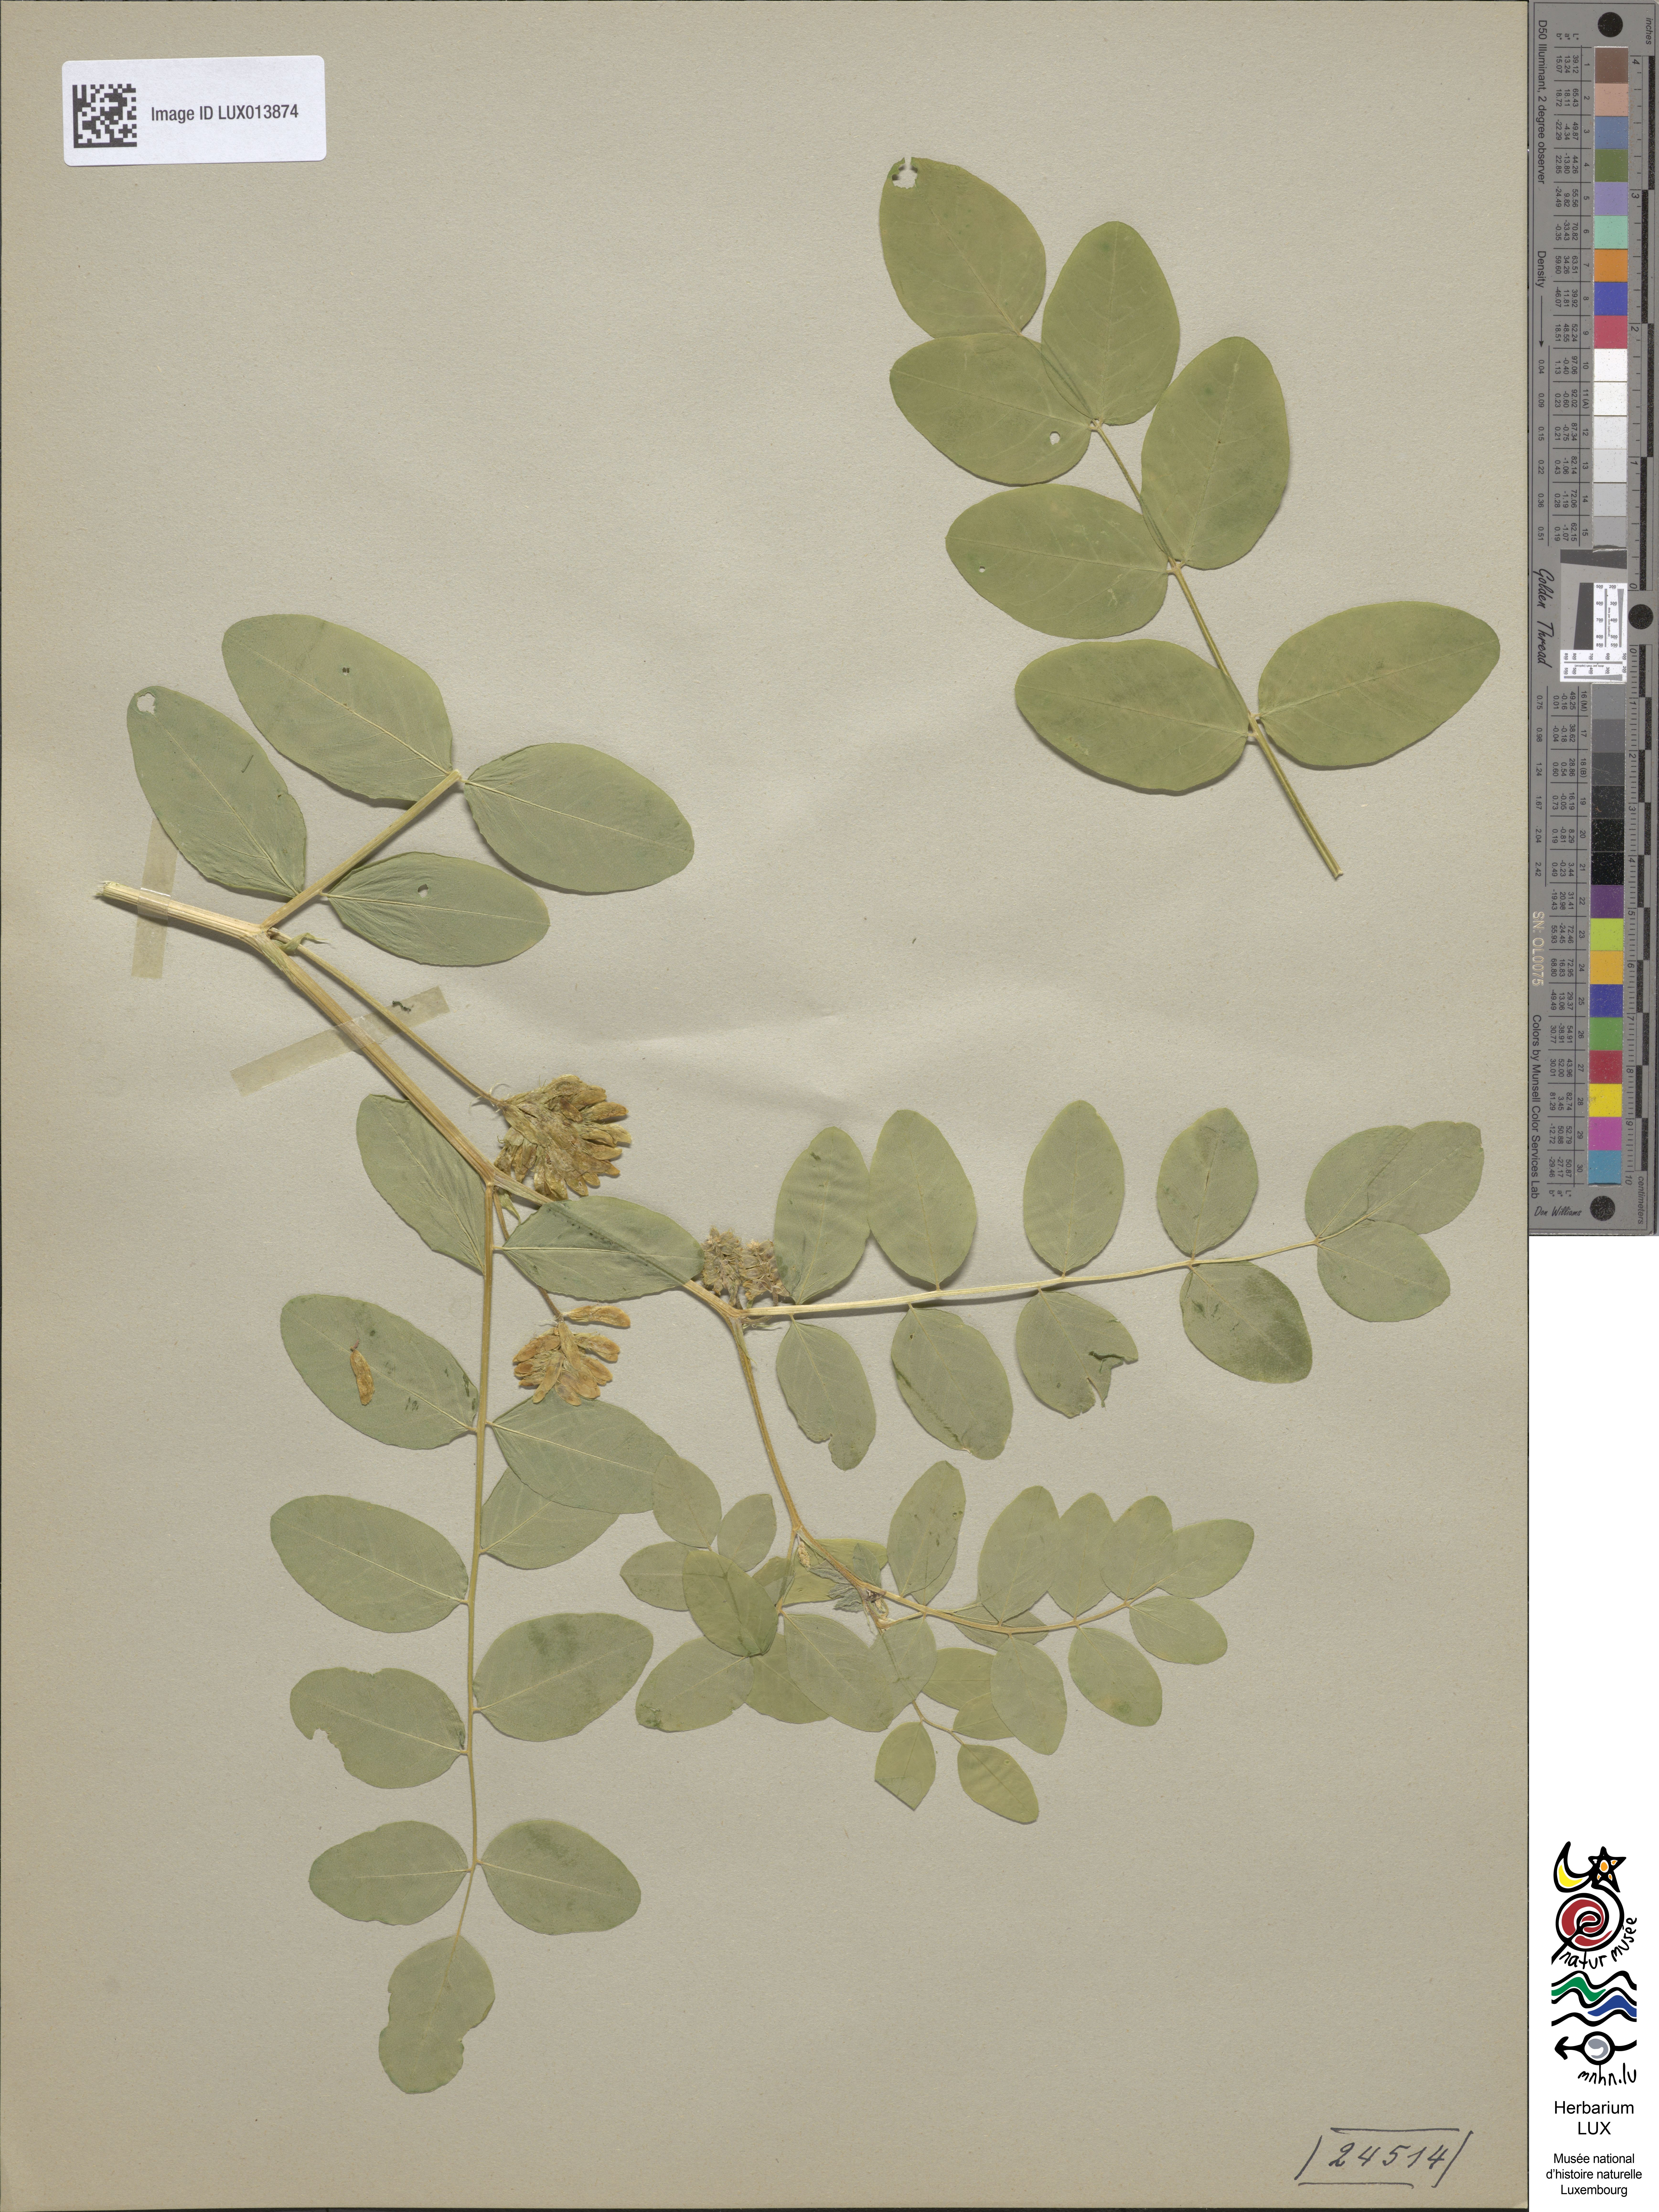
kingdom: Plantae
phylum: Tracheophyta
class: Magnoliopsida
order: Fabales
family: Fabaceae
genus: Astragalus
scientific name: Astragalus glycyphyllos
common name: Wild liquorice
